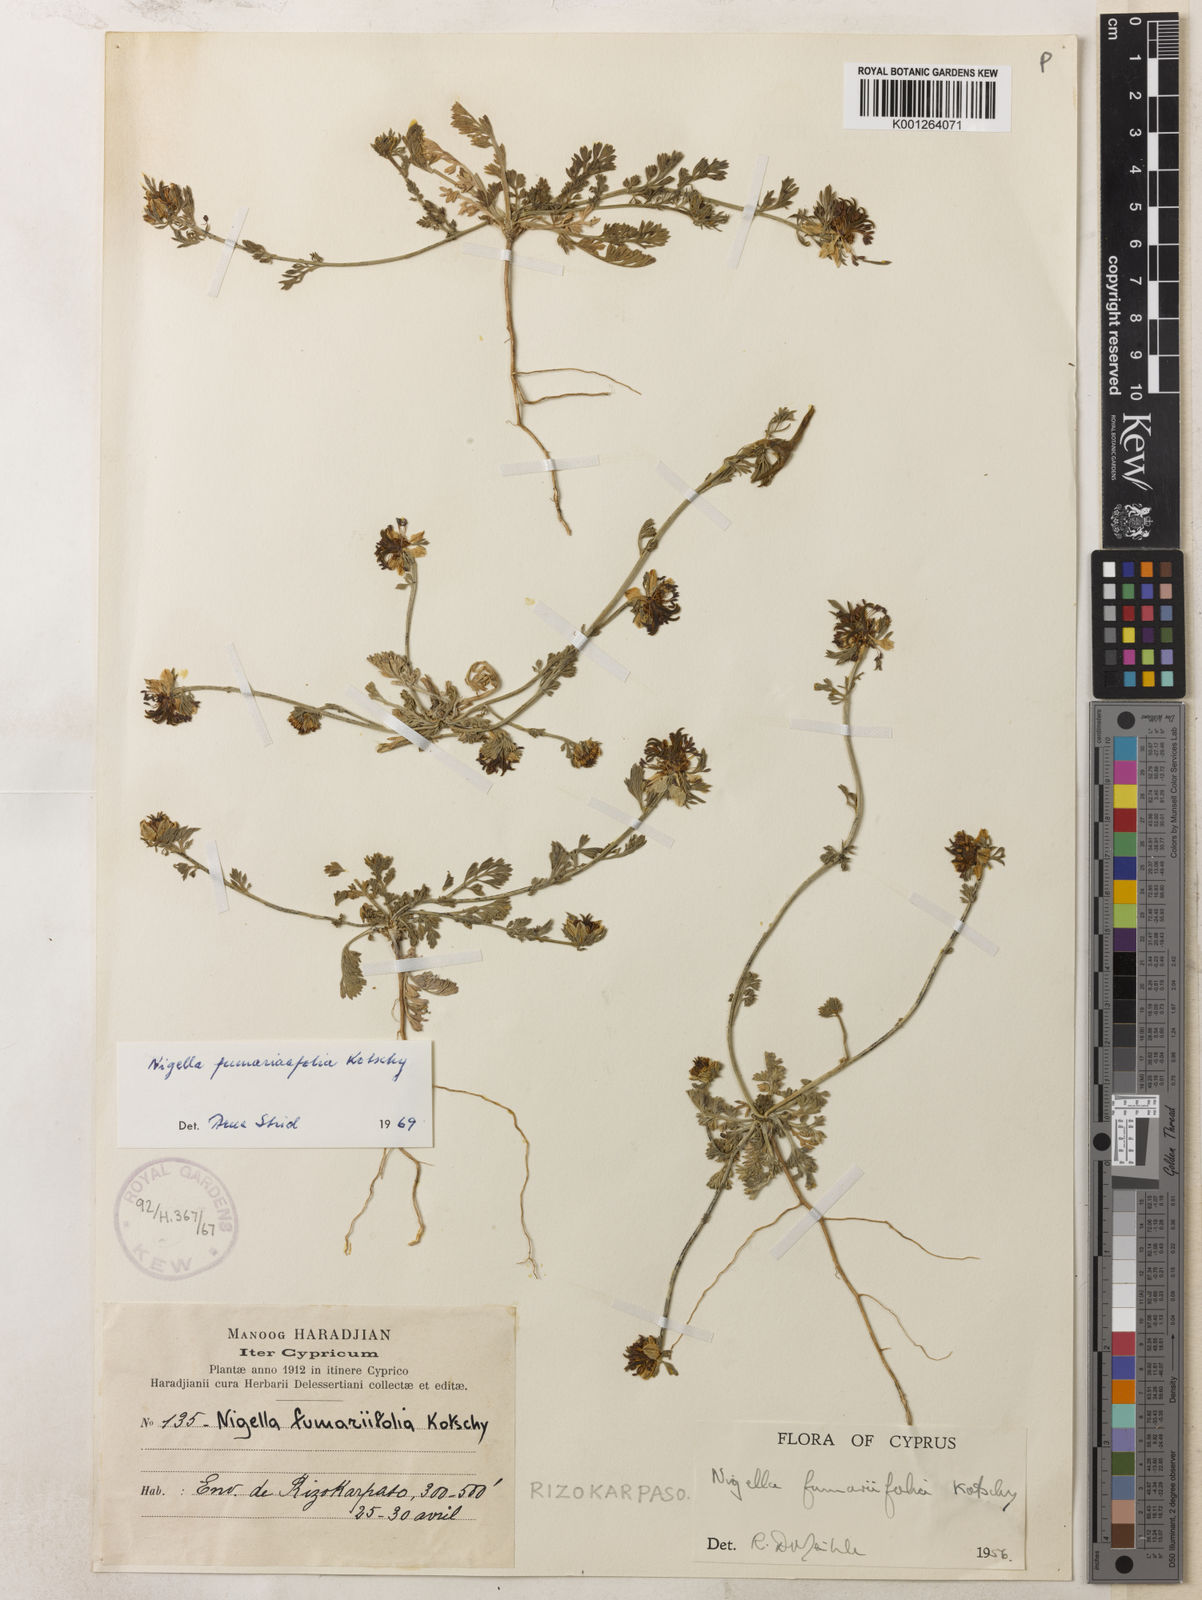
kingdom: Plantae
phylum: Tracheophyta
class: Magnoliopsida
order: Ranunculales
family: Ranunculaceae
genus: Nigella
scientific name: Nigella
